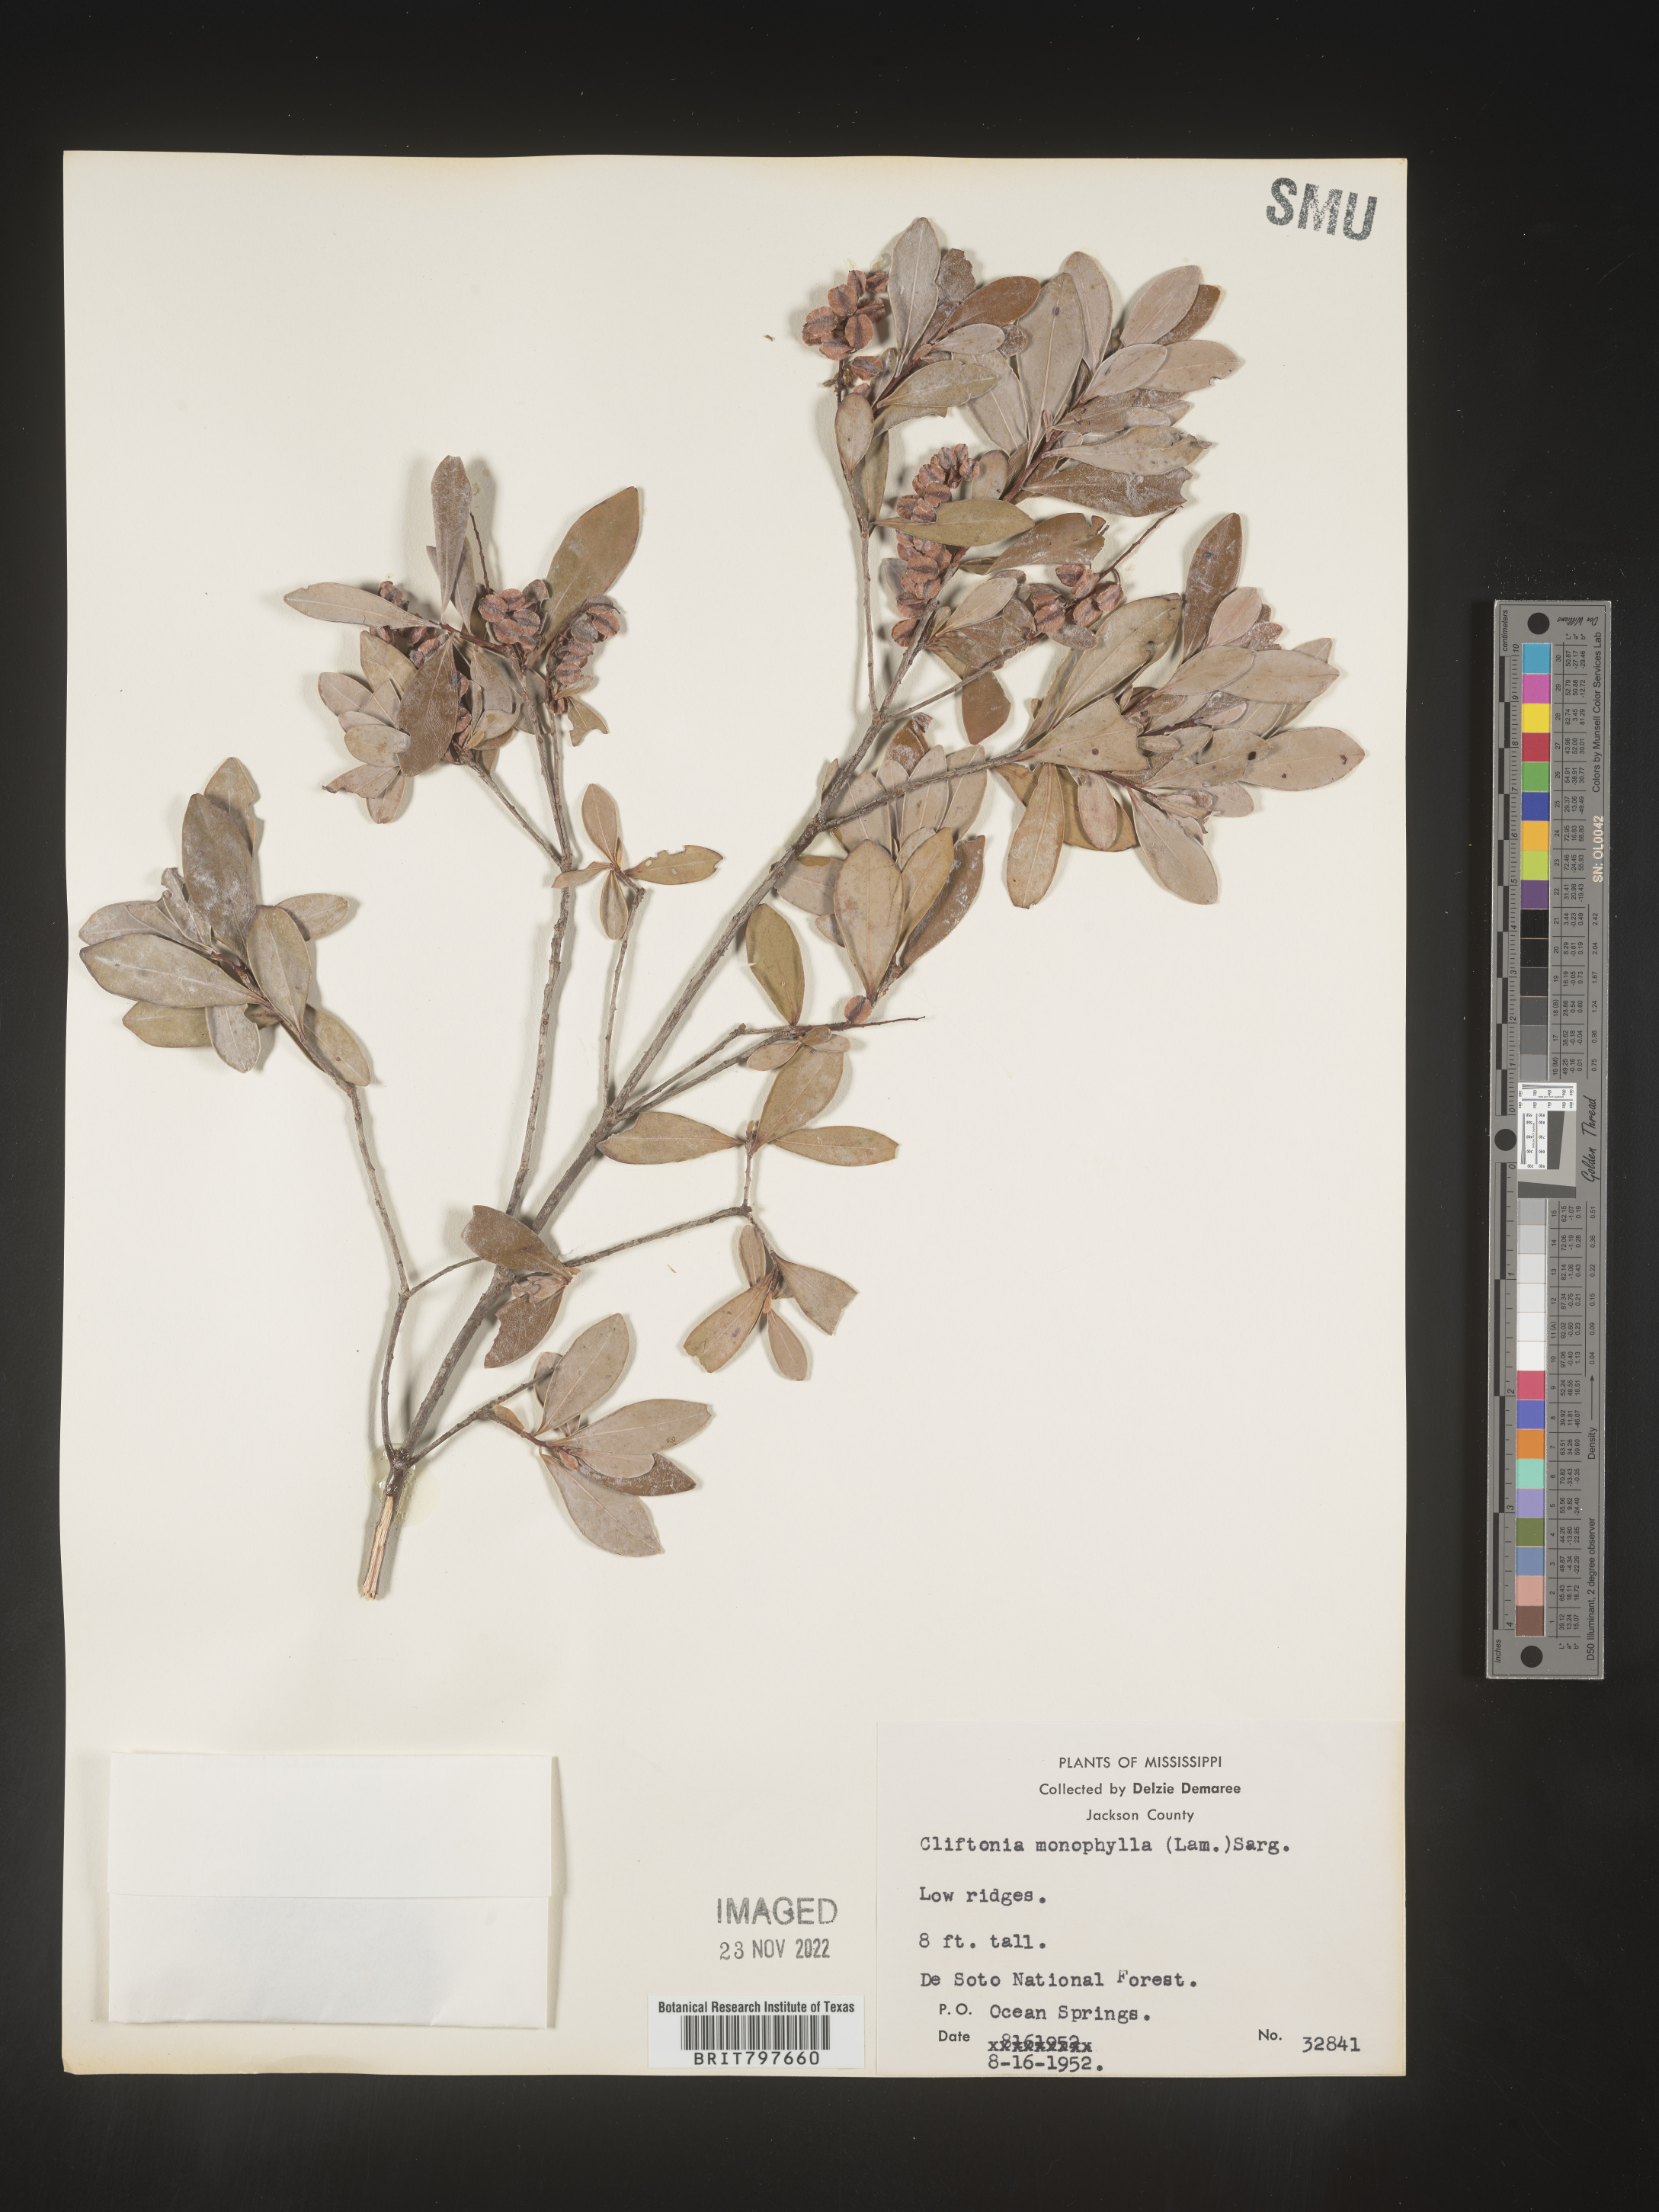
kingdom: Plantae
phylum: Tracheophyta
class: Magnoliopsida
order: Ericales
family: Cyrillaceae
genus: Cliftonia
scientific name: Cliftonia monophylla
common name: Titi
